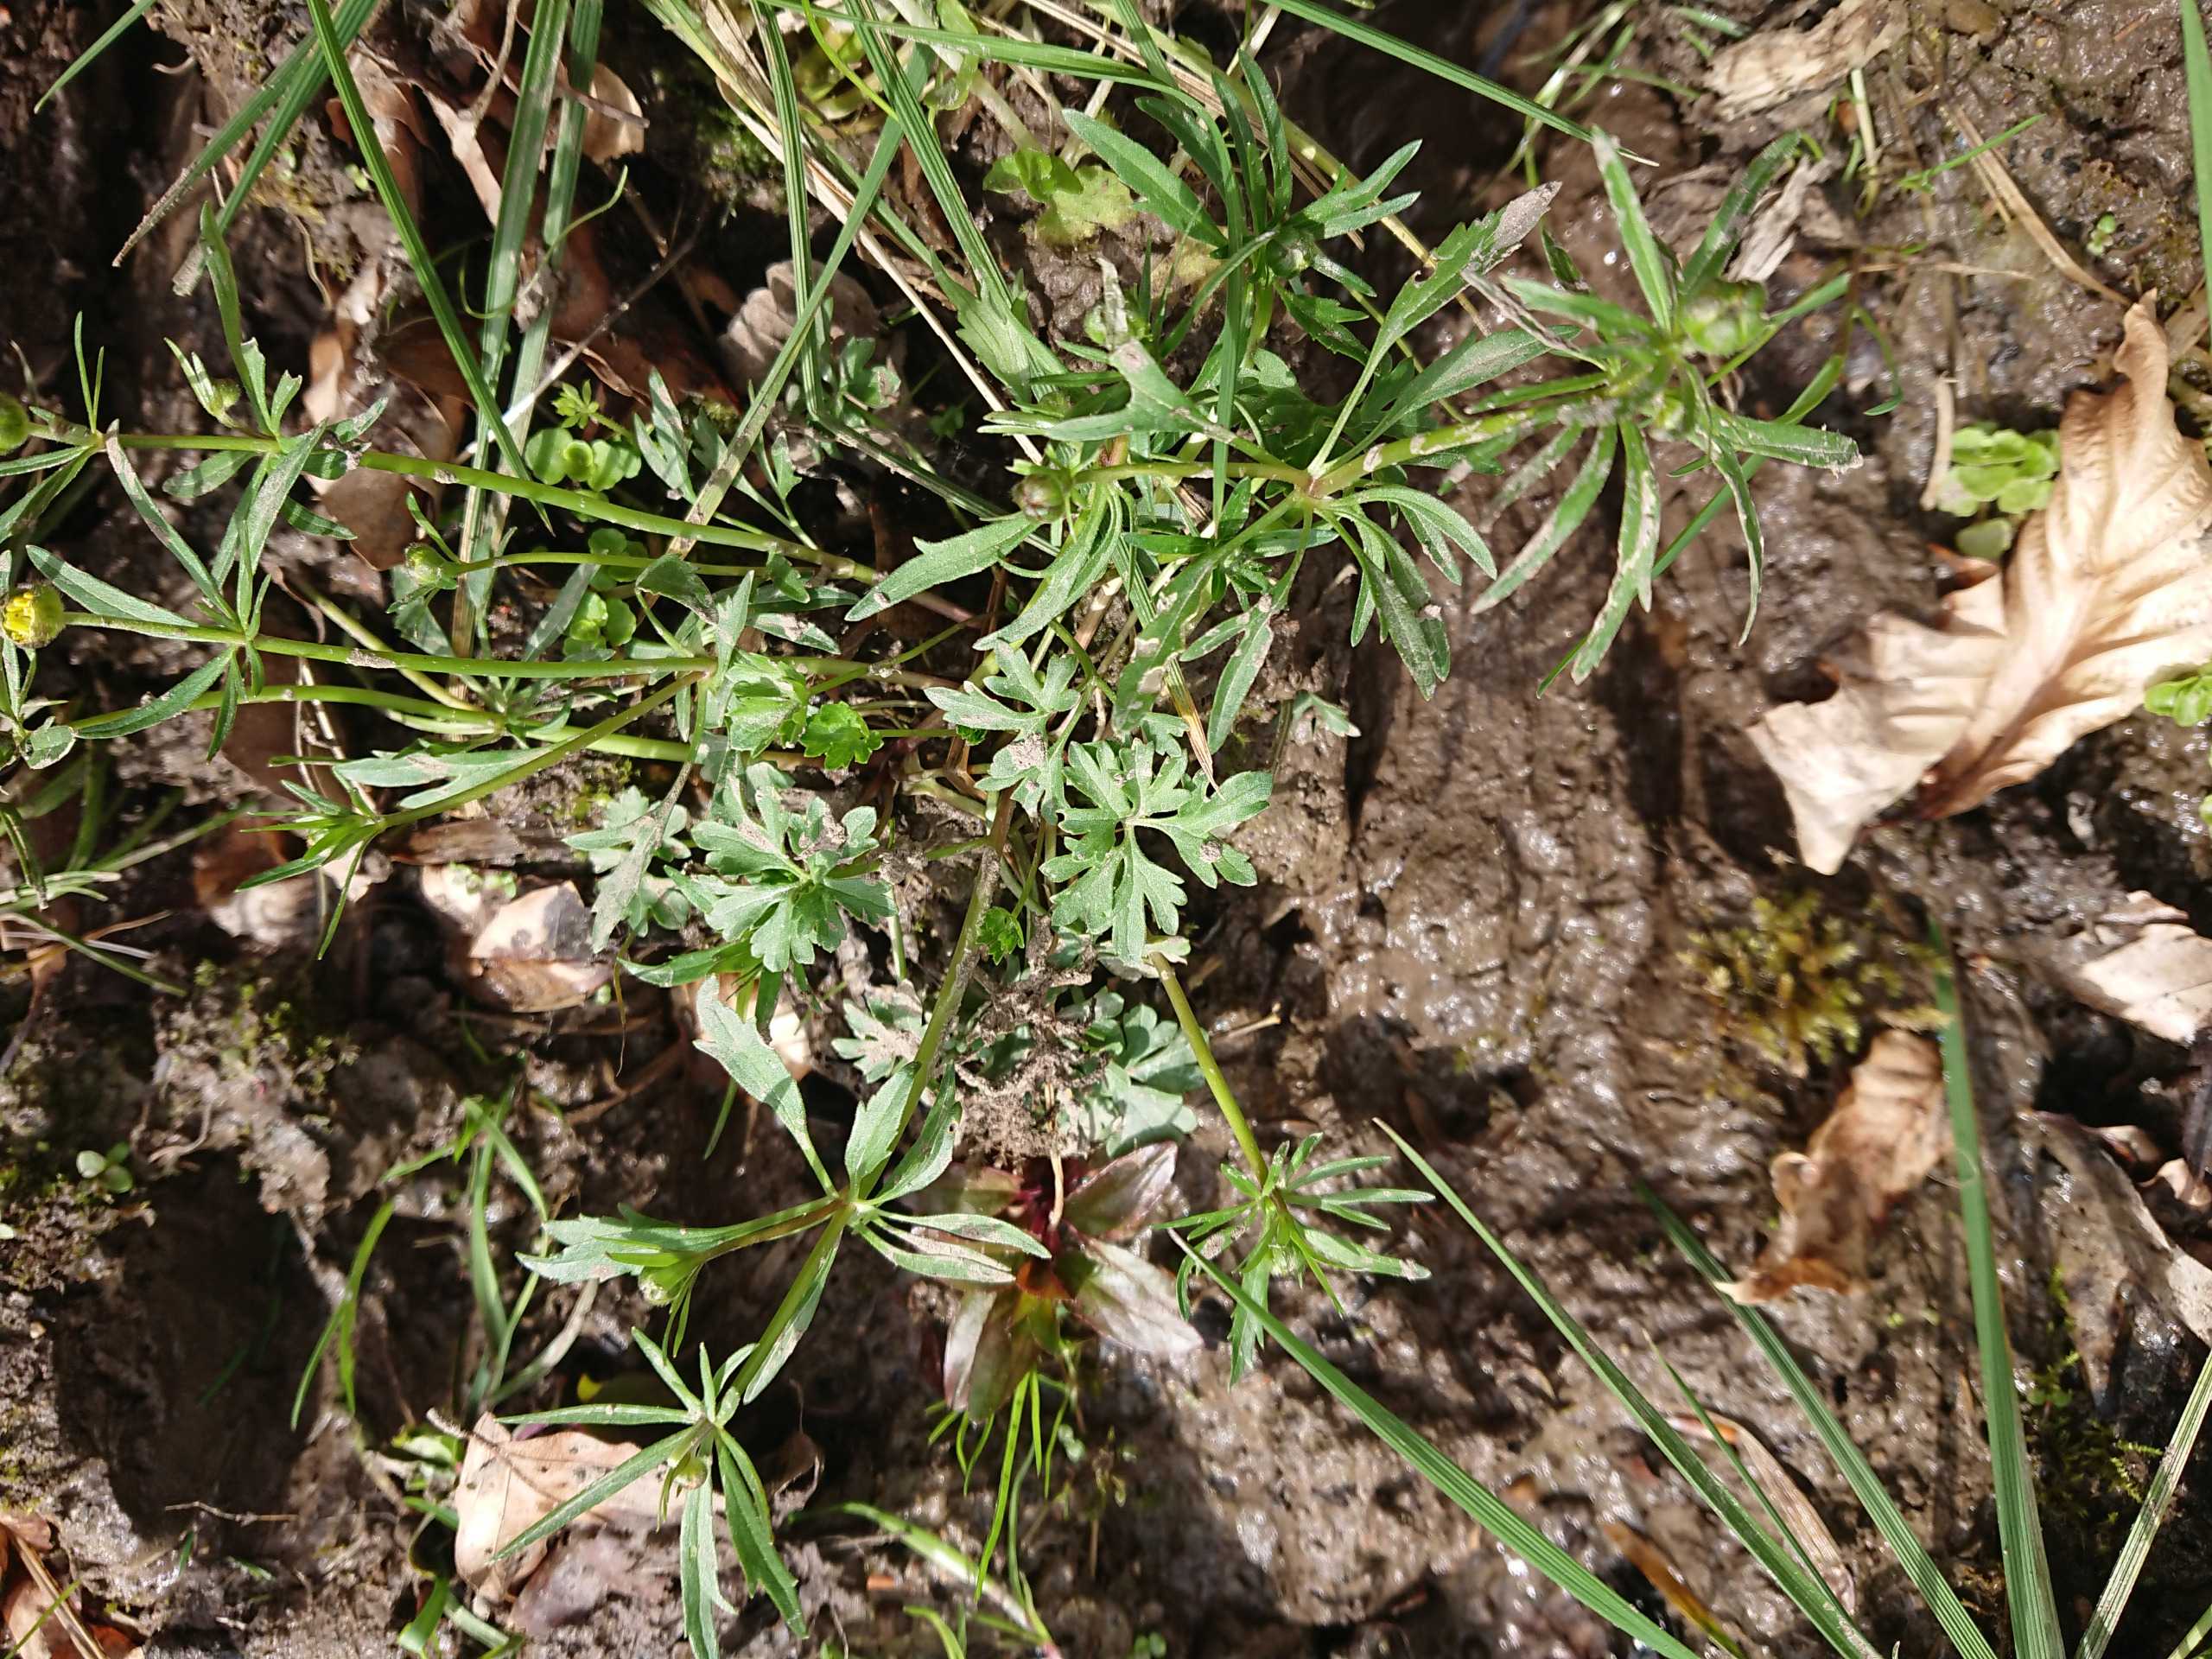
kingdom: Plantae
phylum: Tracheophyta
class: Magnoliopsida
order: Ranunculales
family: Ranunculaceae
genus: Ranunculus
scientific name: Ranunculus auricomus
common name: Nyrebladet ranunkel
